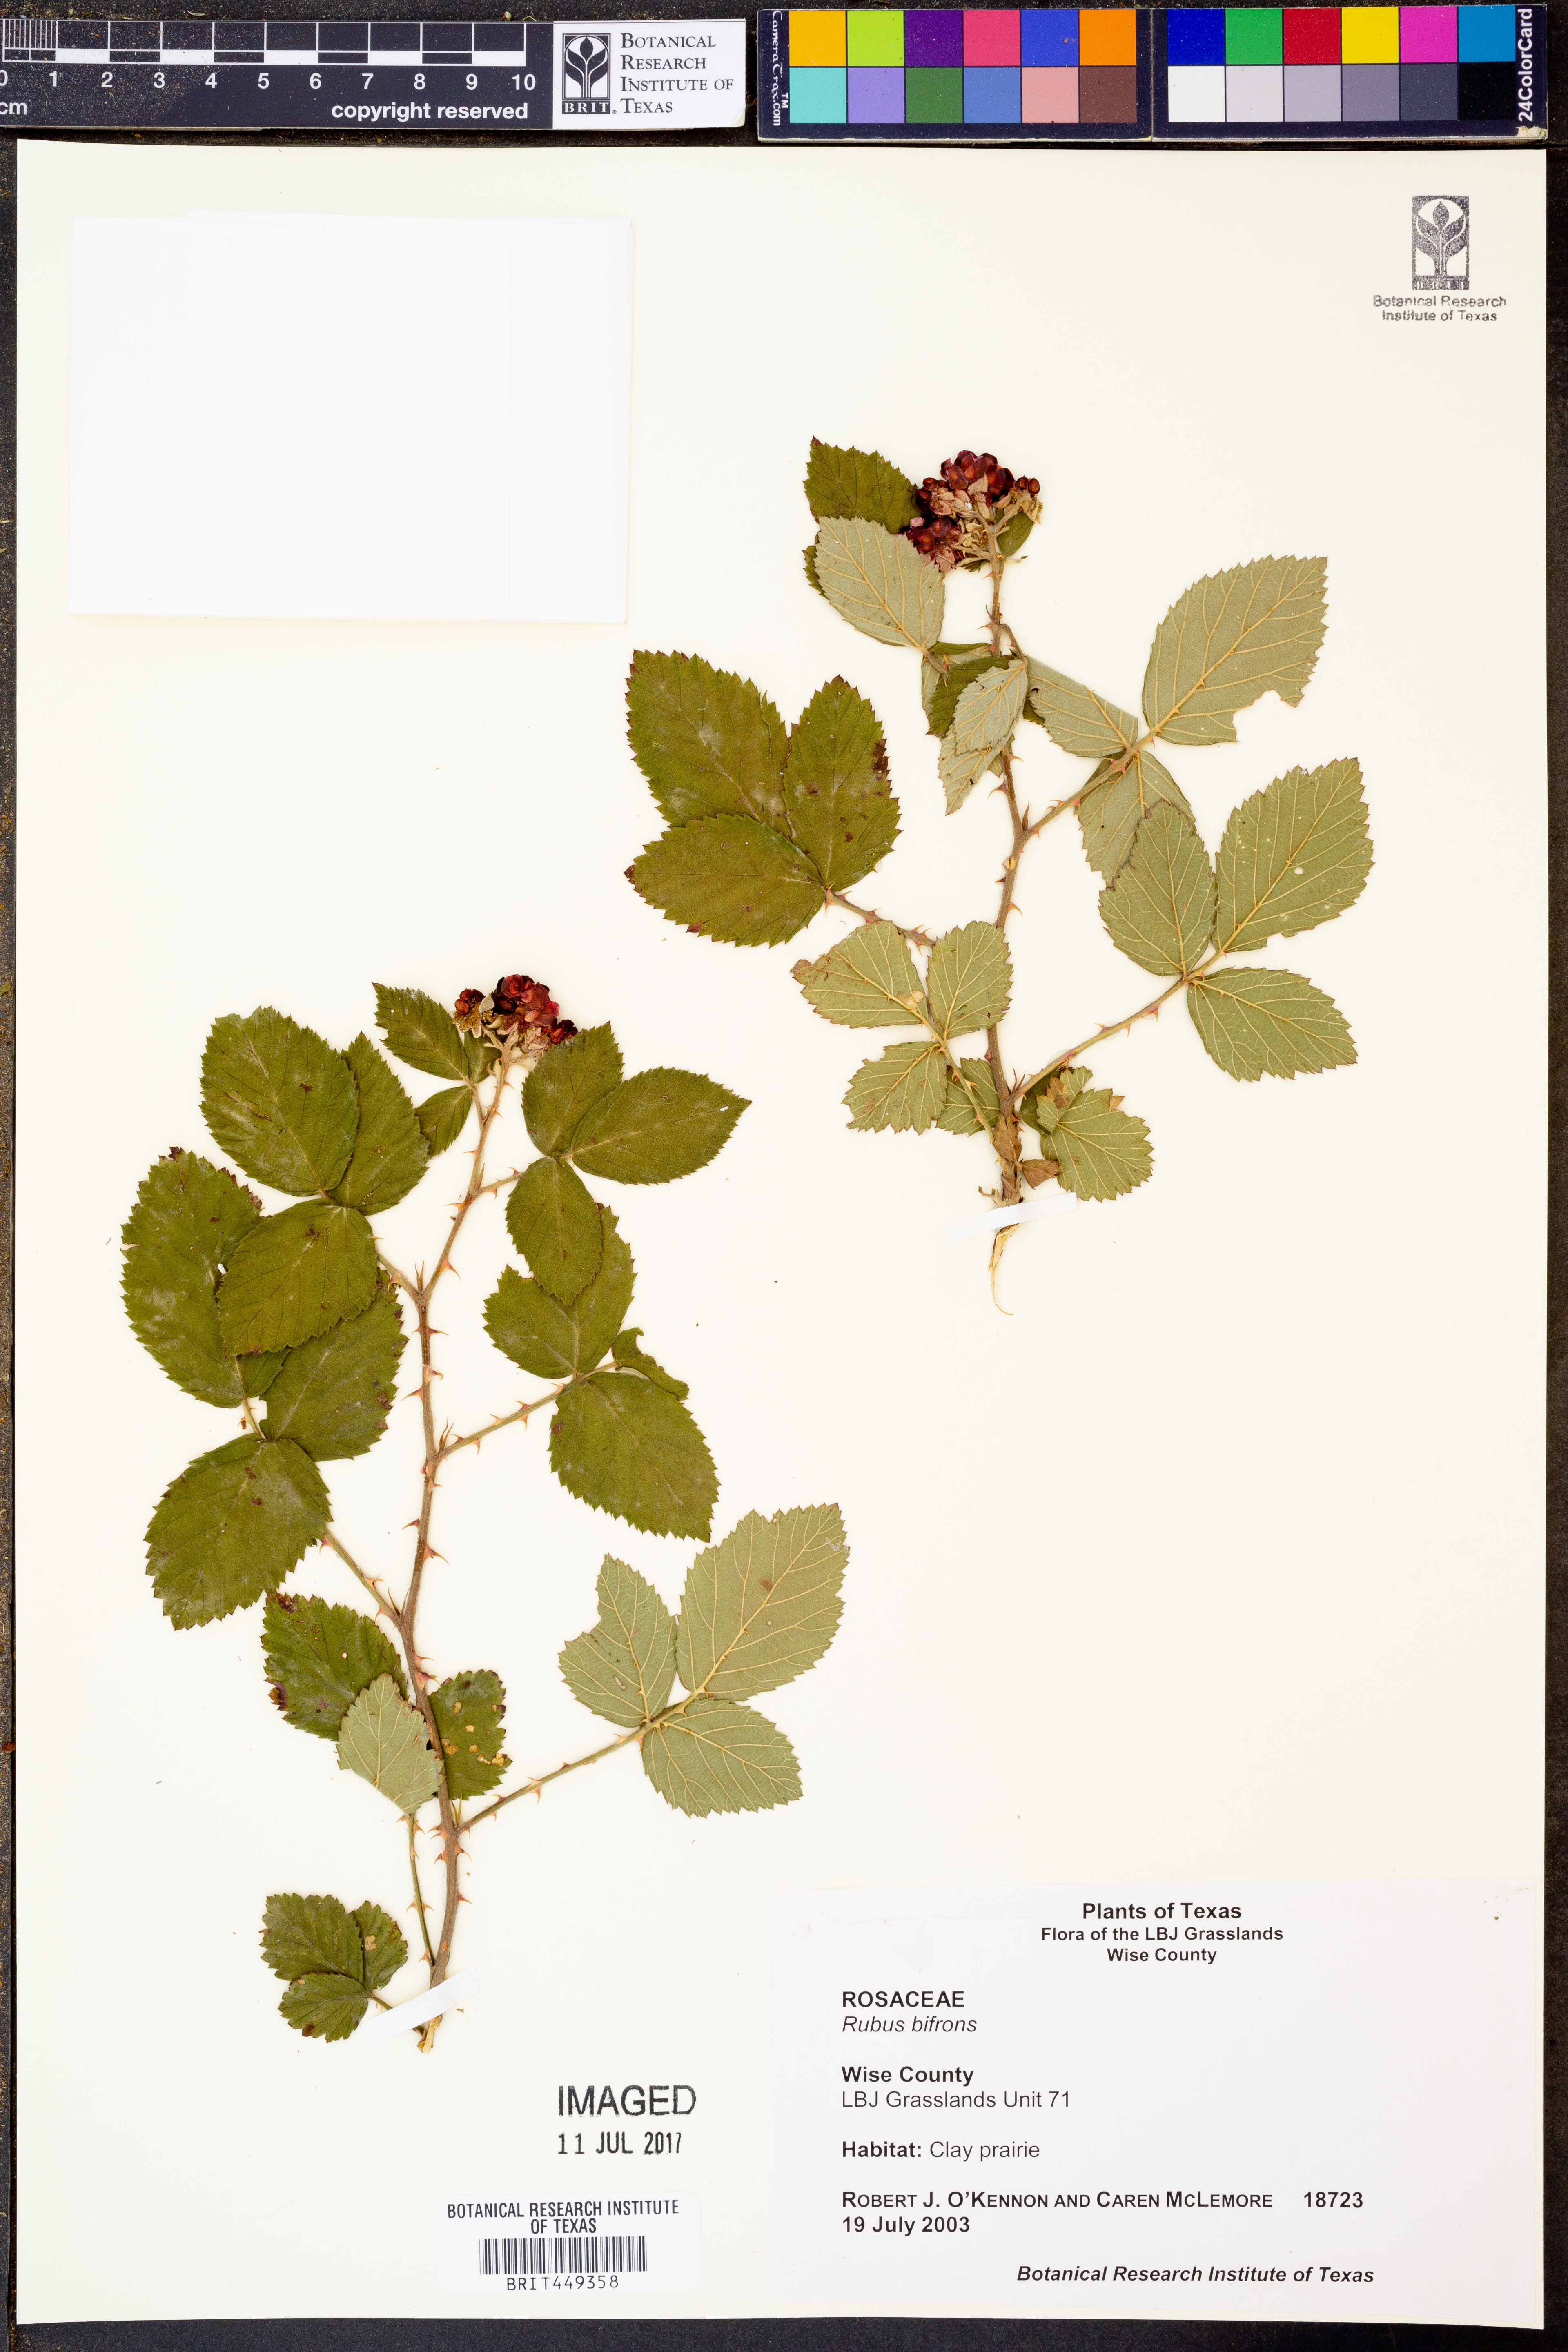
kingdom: Plantae
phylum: Tracheophyta
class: Magnoliopsida
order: Rosales
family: Rosaceae
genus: Rubus
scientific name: Rubus bifrons
